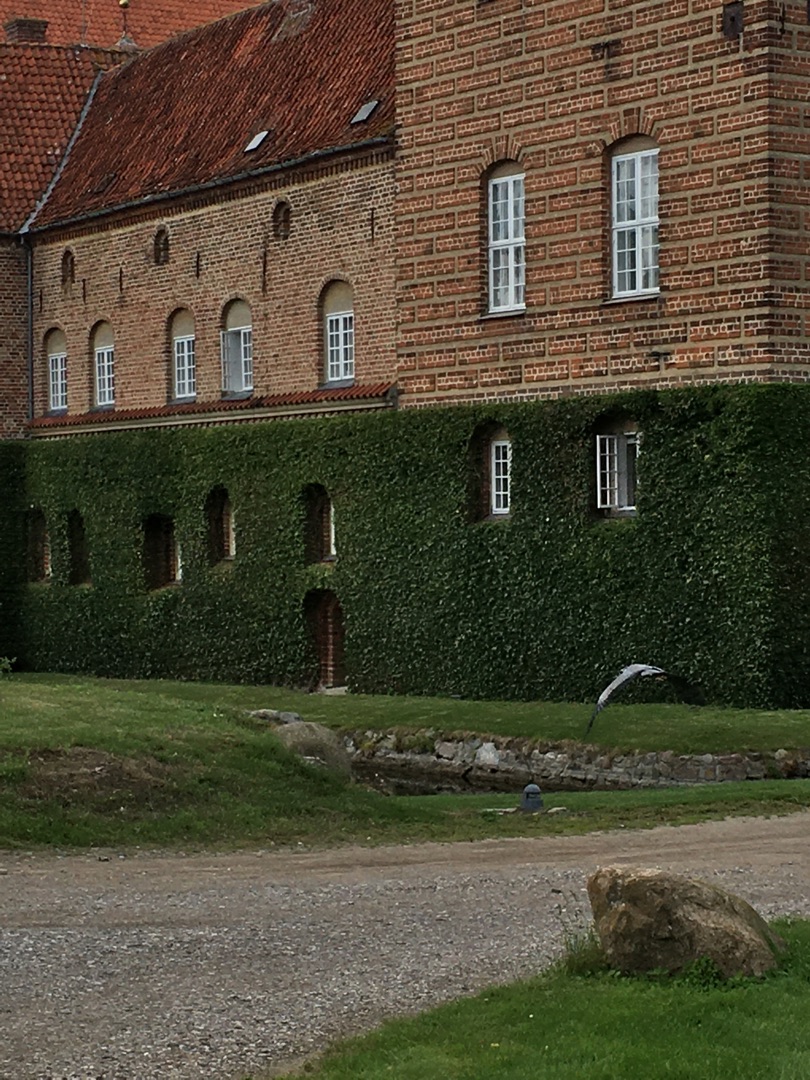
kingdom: Animalia
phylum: Chordata
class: Aves
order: Pelecaniformes
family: Ardeidae
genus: Ardea
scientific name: Ardea cinerea
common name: Fiskehejre
